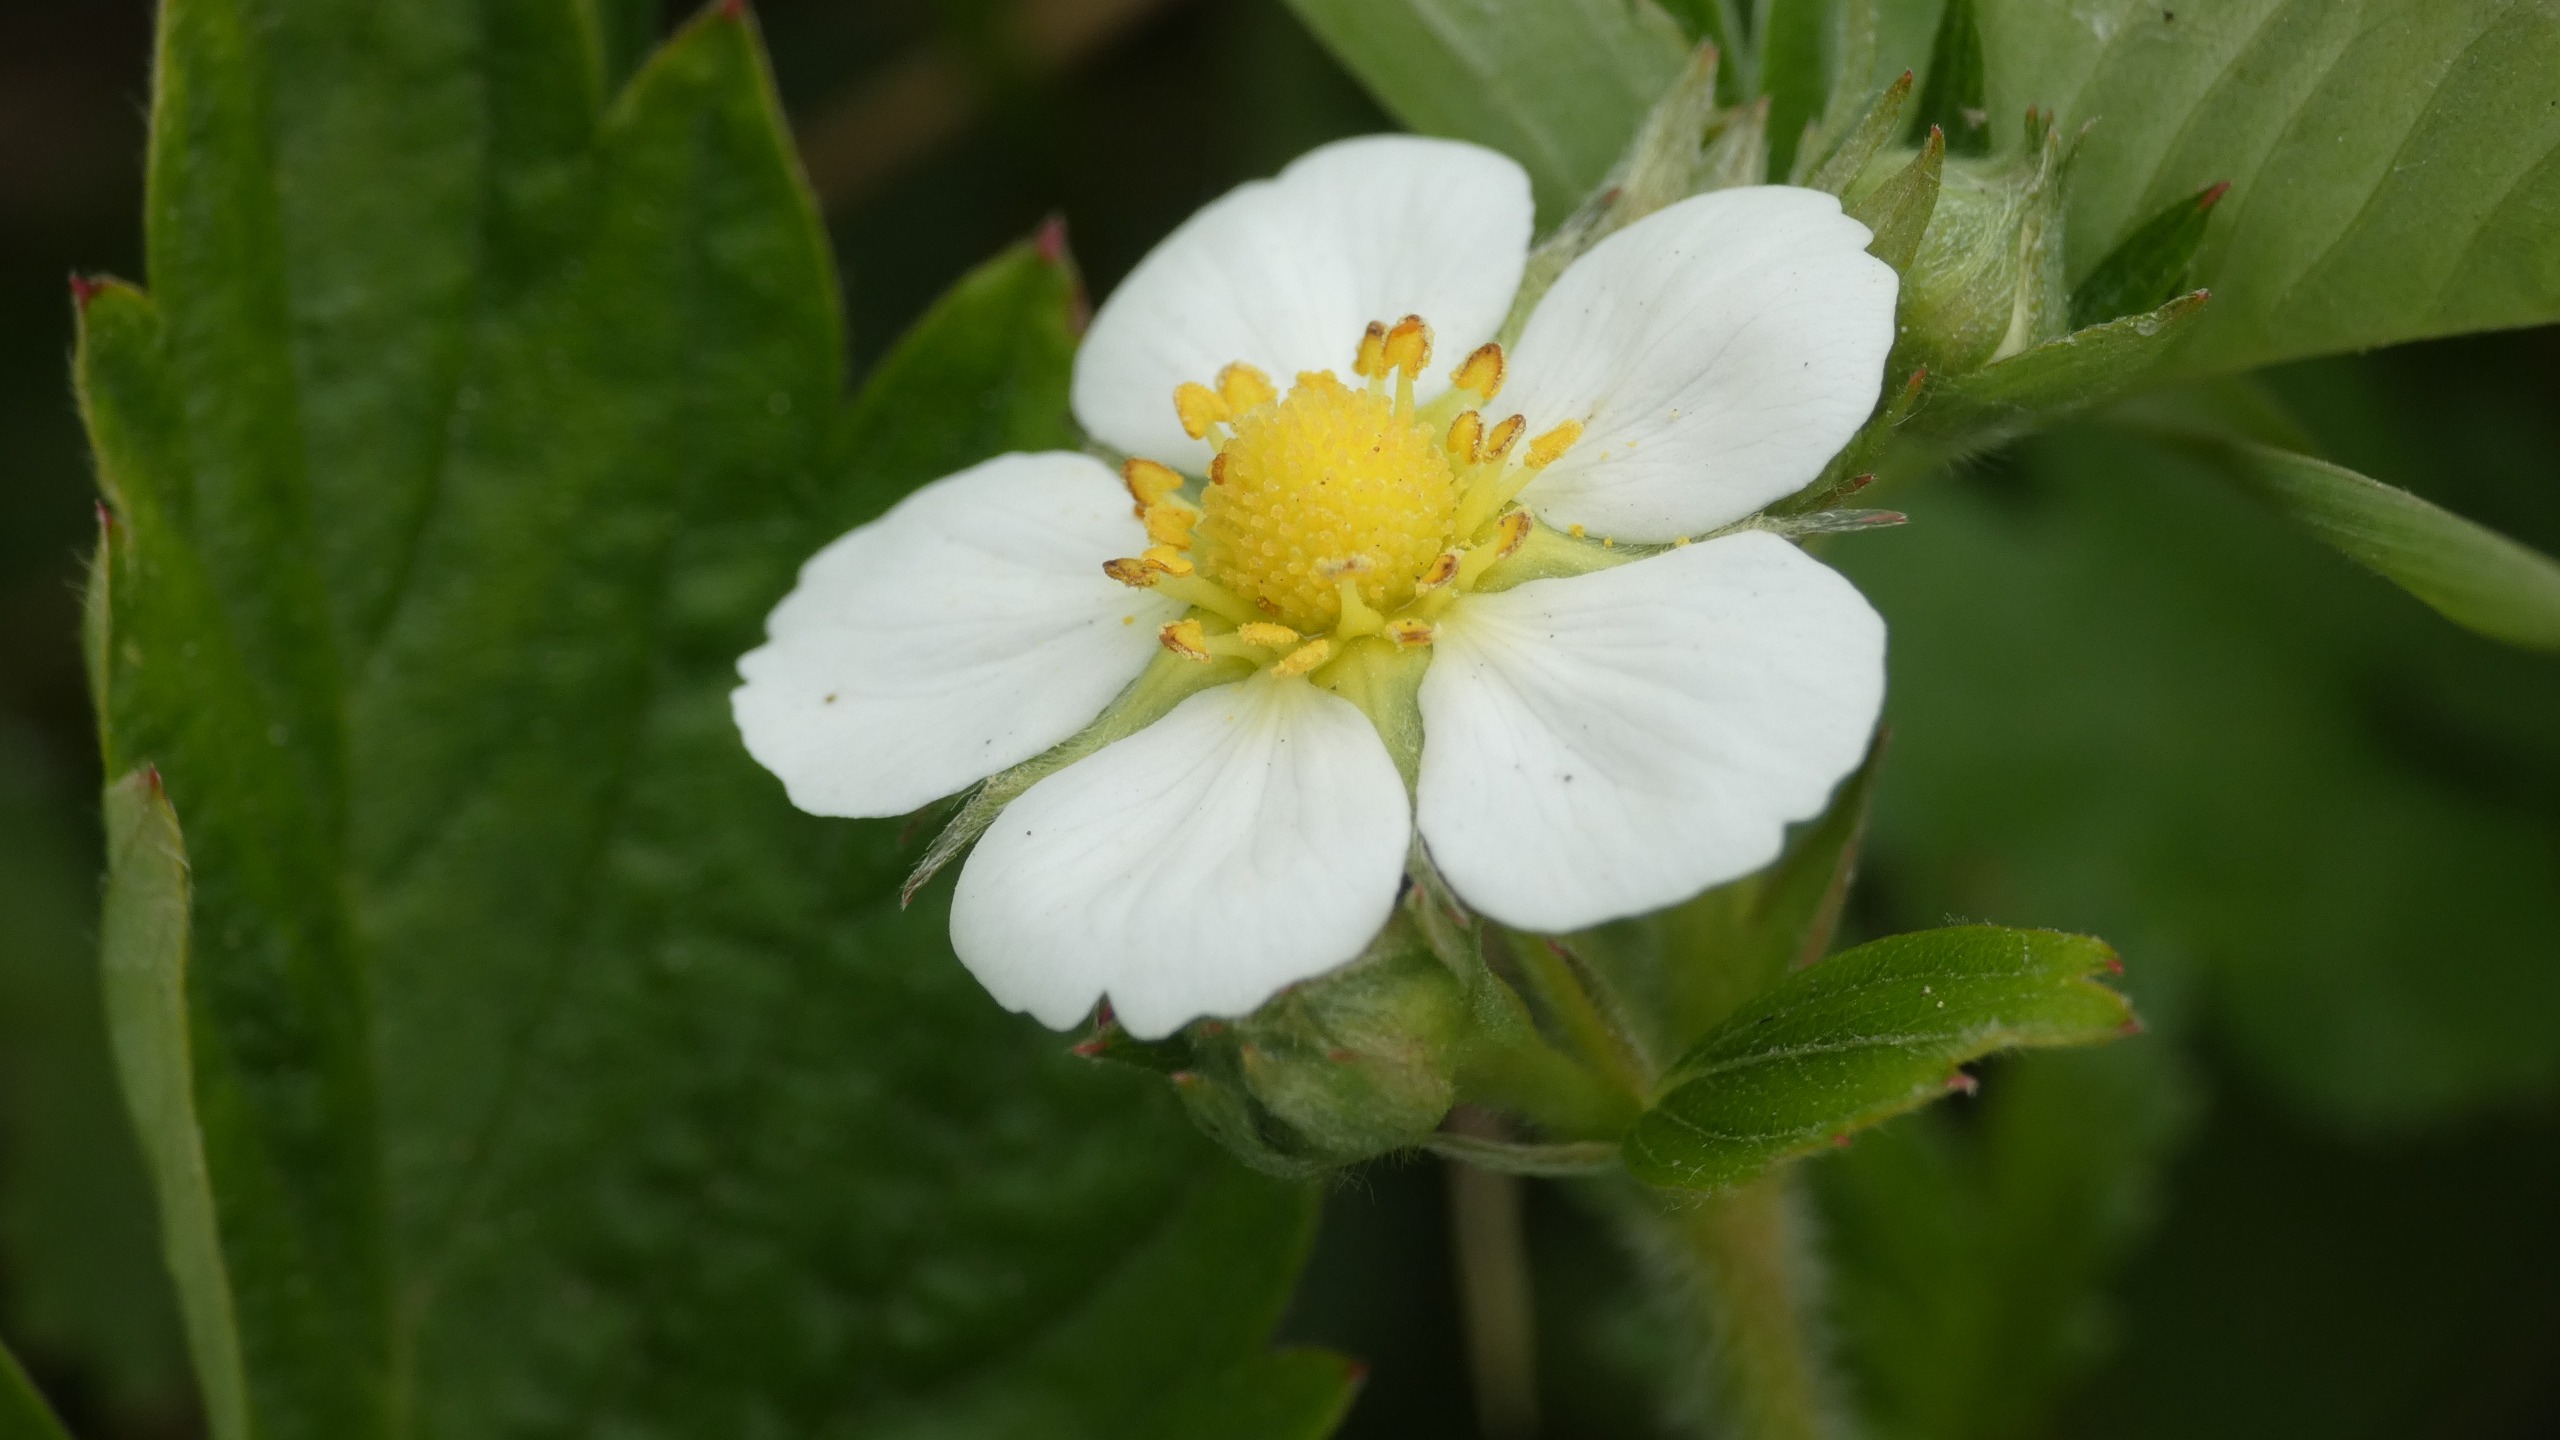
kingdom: Plantae
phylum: Tracheophyta
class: Magnoliopsida
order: Rosales
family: Rosaceae
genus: Fragaria
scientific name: Fragaria vesca
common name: Skov-jordbær
